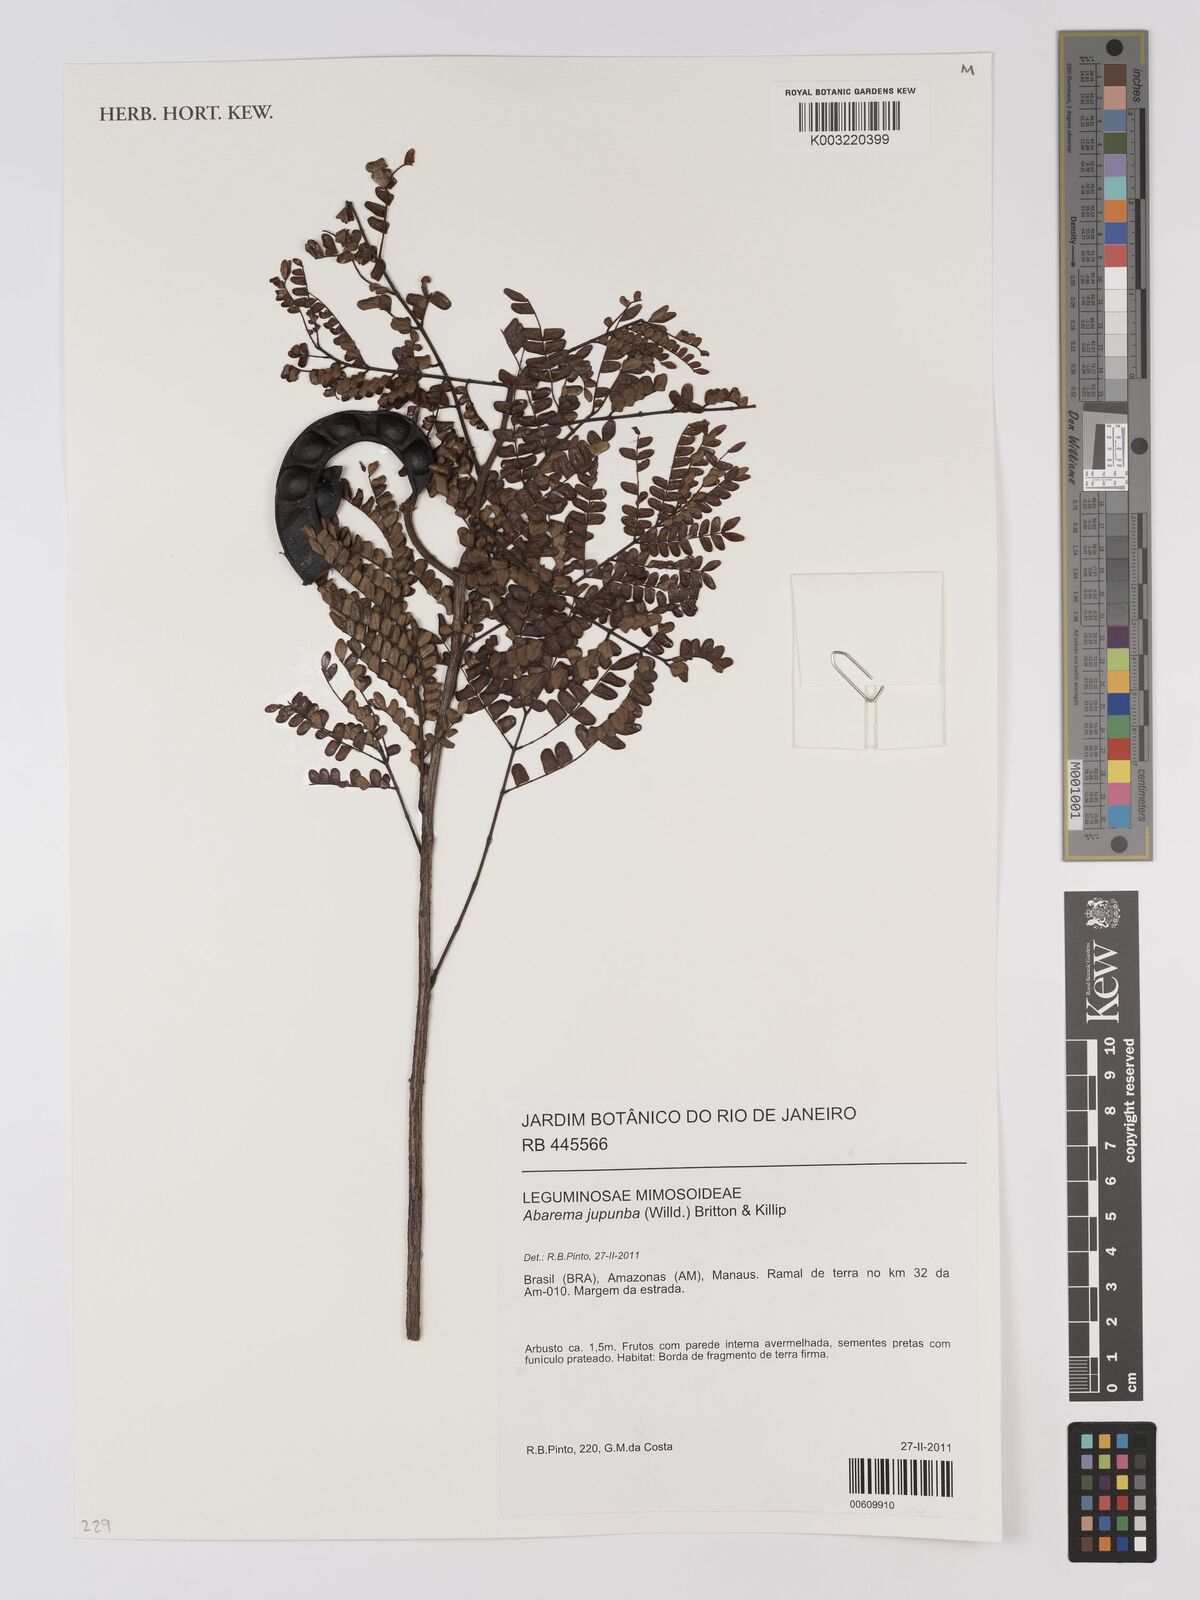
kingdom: Plantae
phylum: Tracheophyta
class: Magnoliopsida
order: Fabales
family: Fabaceae
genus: Jupunba
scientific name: Jupunba trapezifolia
